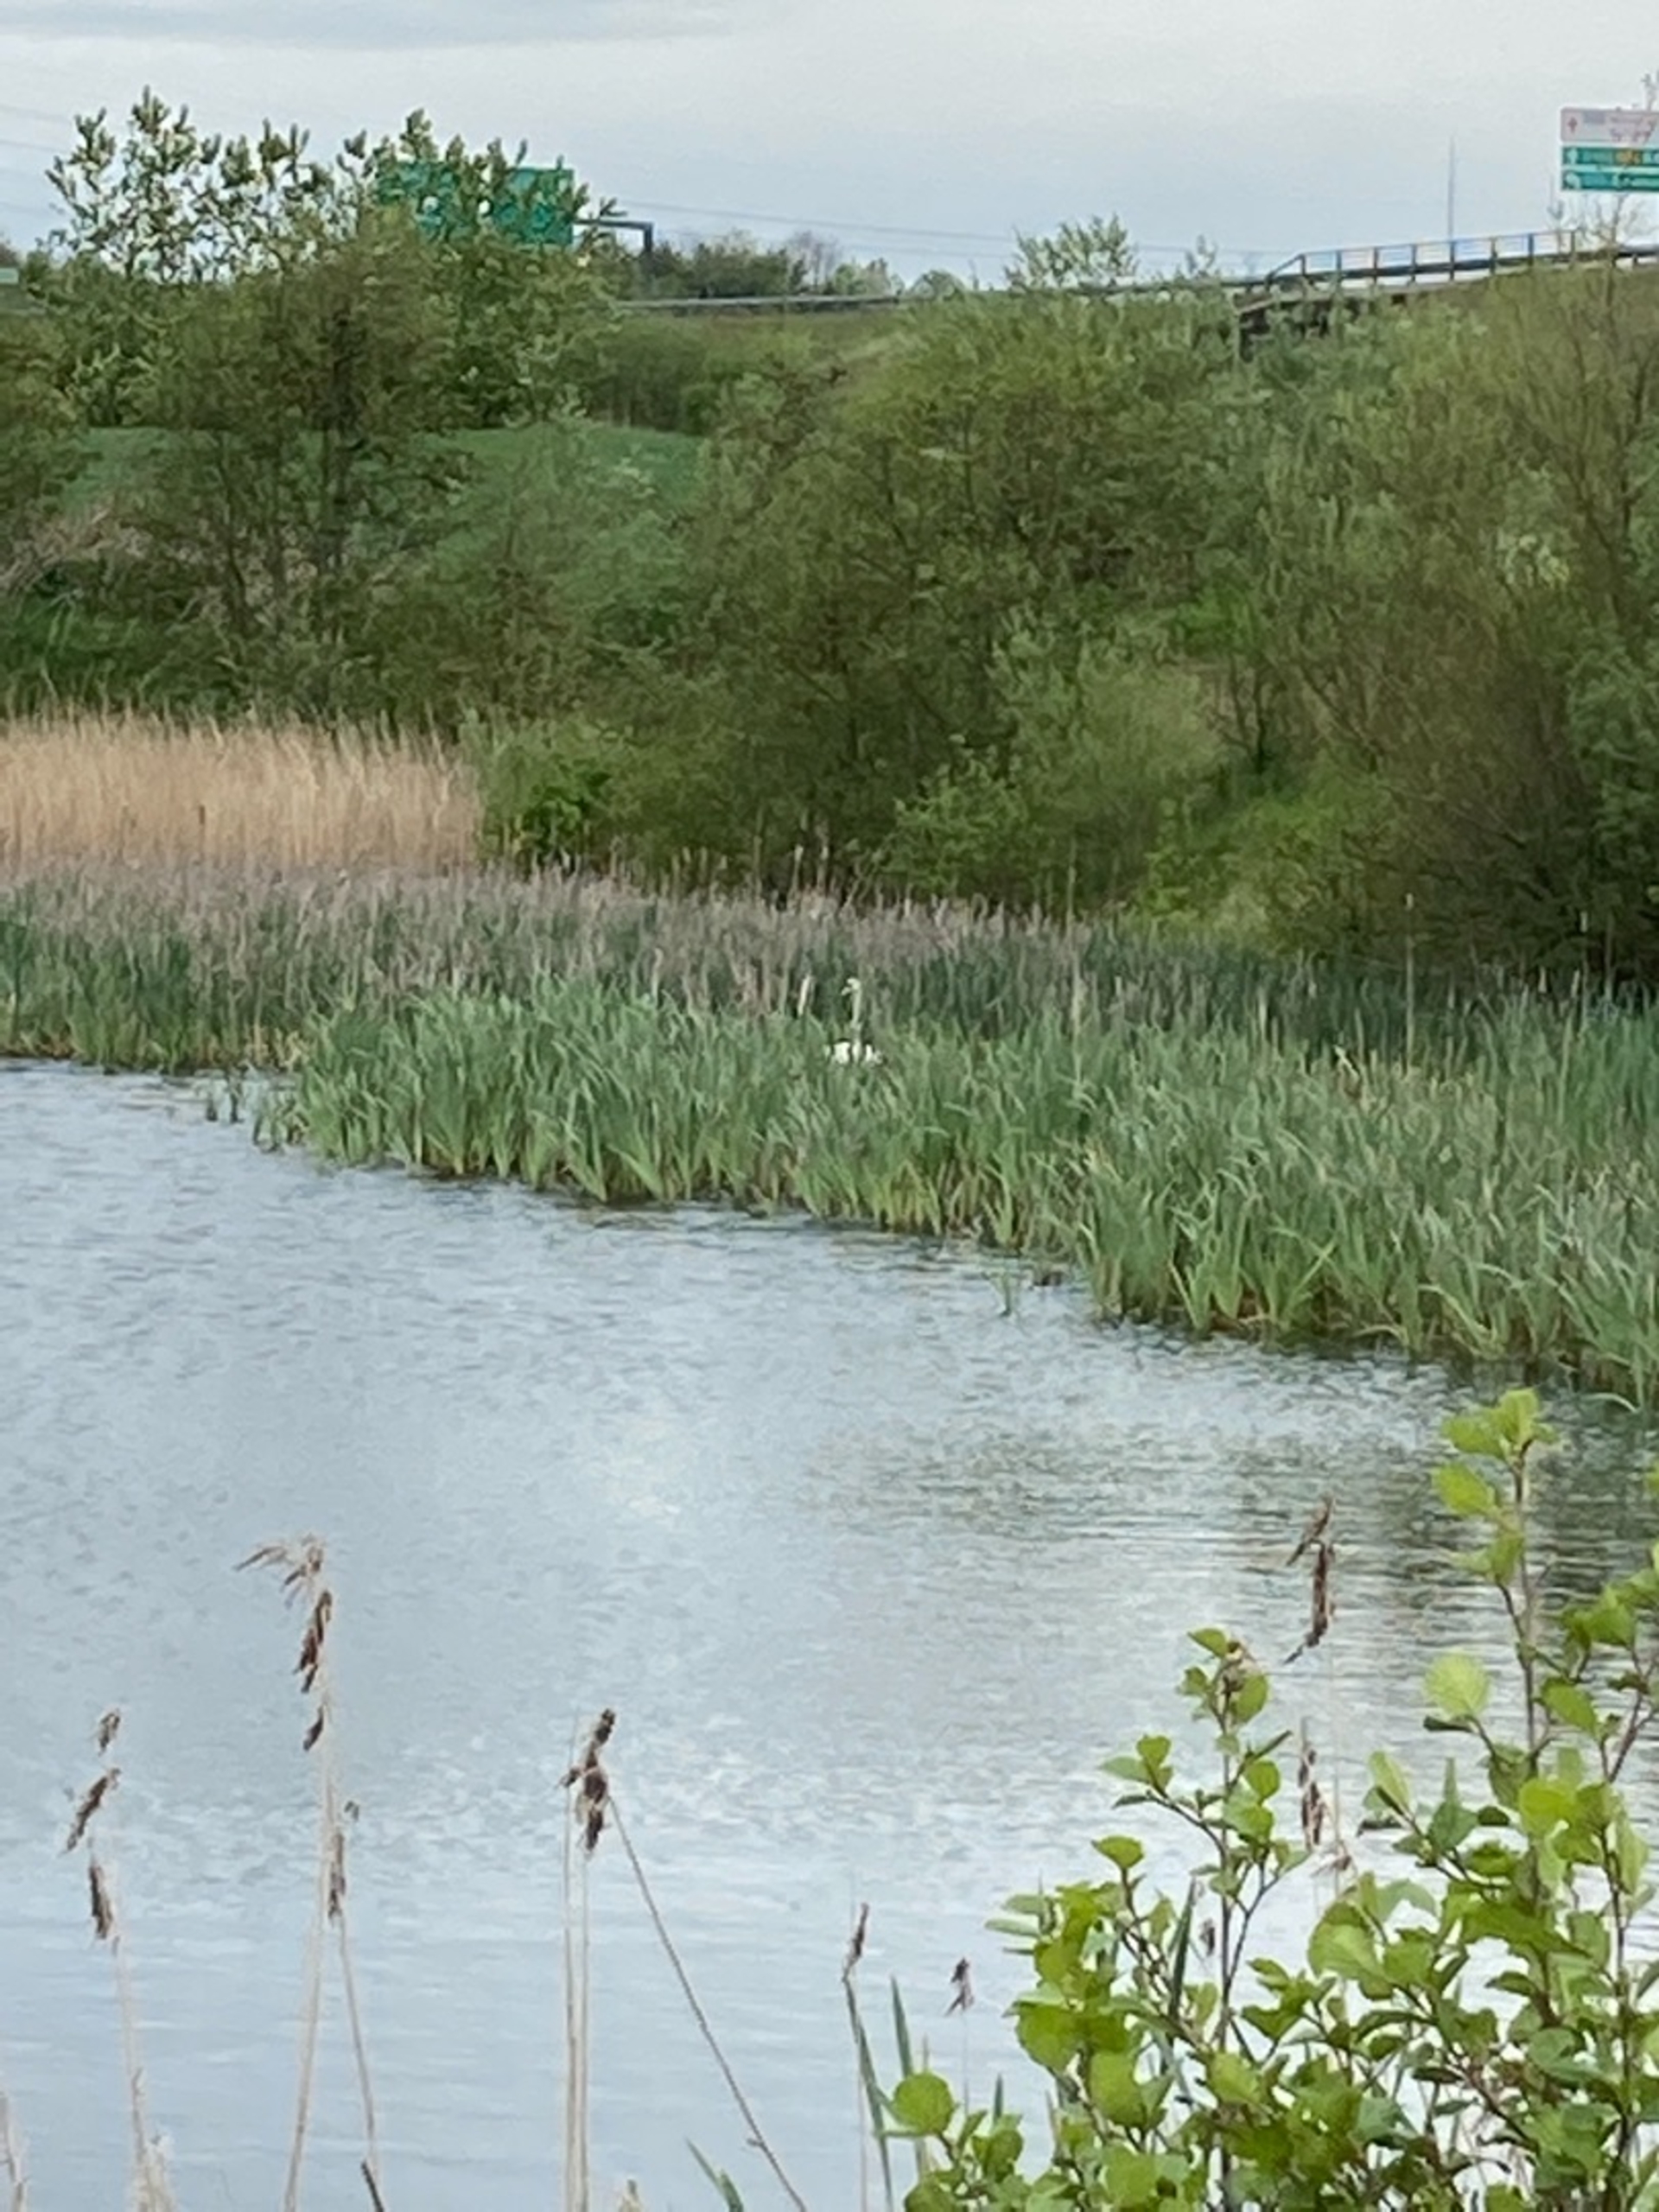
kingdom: Animalia
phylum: Chordata
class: Aves
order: Anseriformes
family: Anatidae
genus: Cygnus
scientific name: Cygnus olor
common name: Knopsvane
